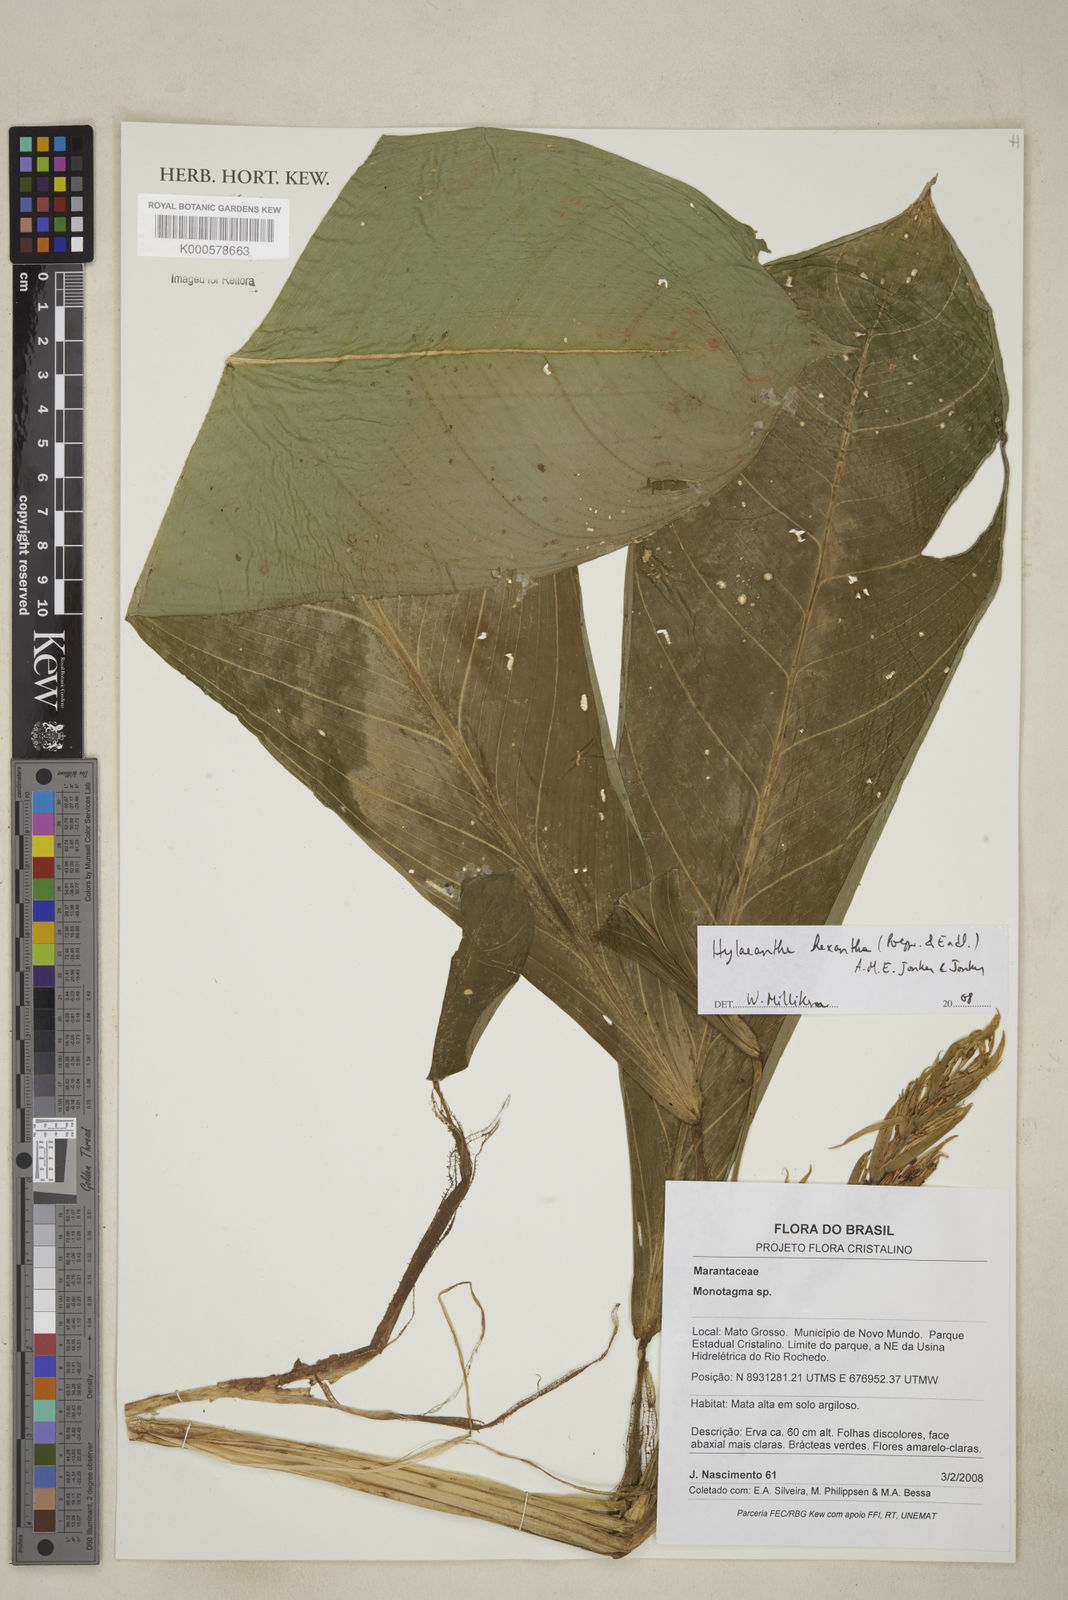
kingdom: Plantae
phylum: Tracheophyta
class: Liliopsida
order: Zingiberales
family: Marantaceae
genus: Hylaeanthe
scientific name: Hylaeanthe hexantha
